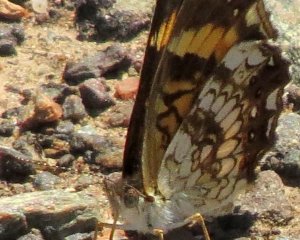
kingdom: Animalia
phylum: Arthropoda
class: Insecta
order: Lepidoptera
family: Nymphalidae
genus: Chlosyne
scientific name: Chlosyne nycteis
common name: Silvery Checkerspot
